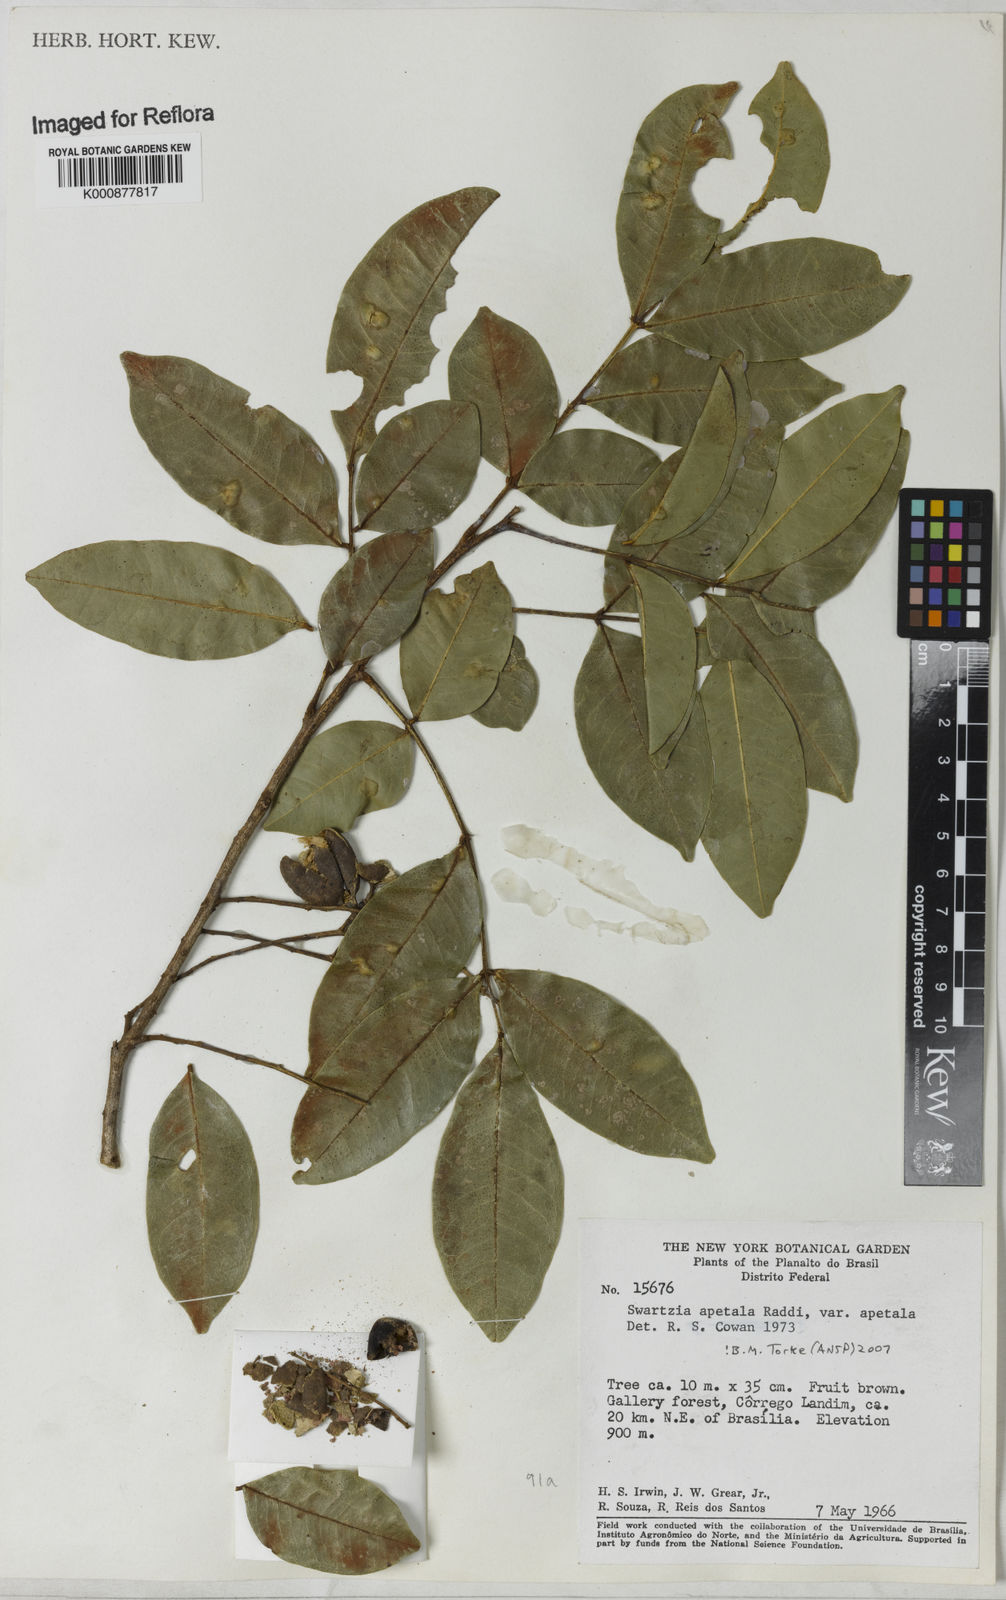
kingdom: Plantae
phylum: Tracheophyta
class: Magnoliopsida
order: Fabales
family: Fabaceae
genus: Swartzia
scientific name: Swartzia apetala
